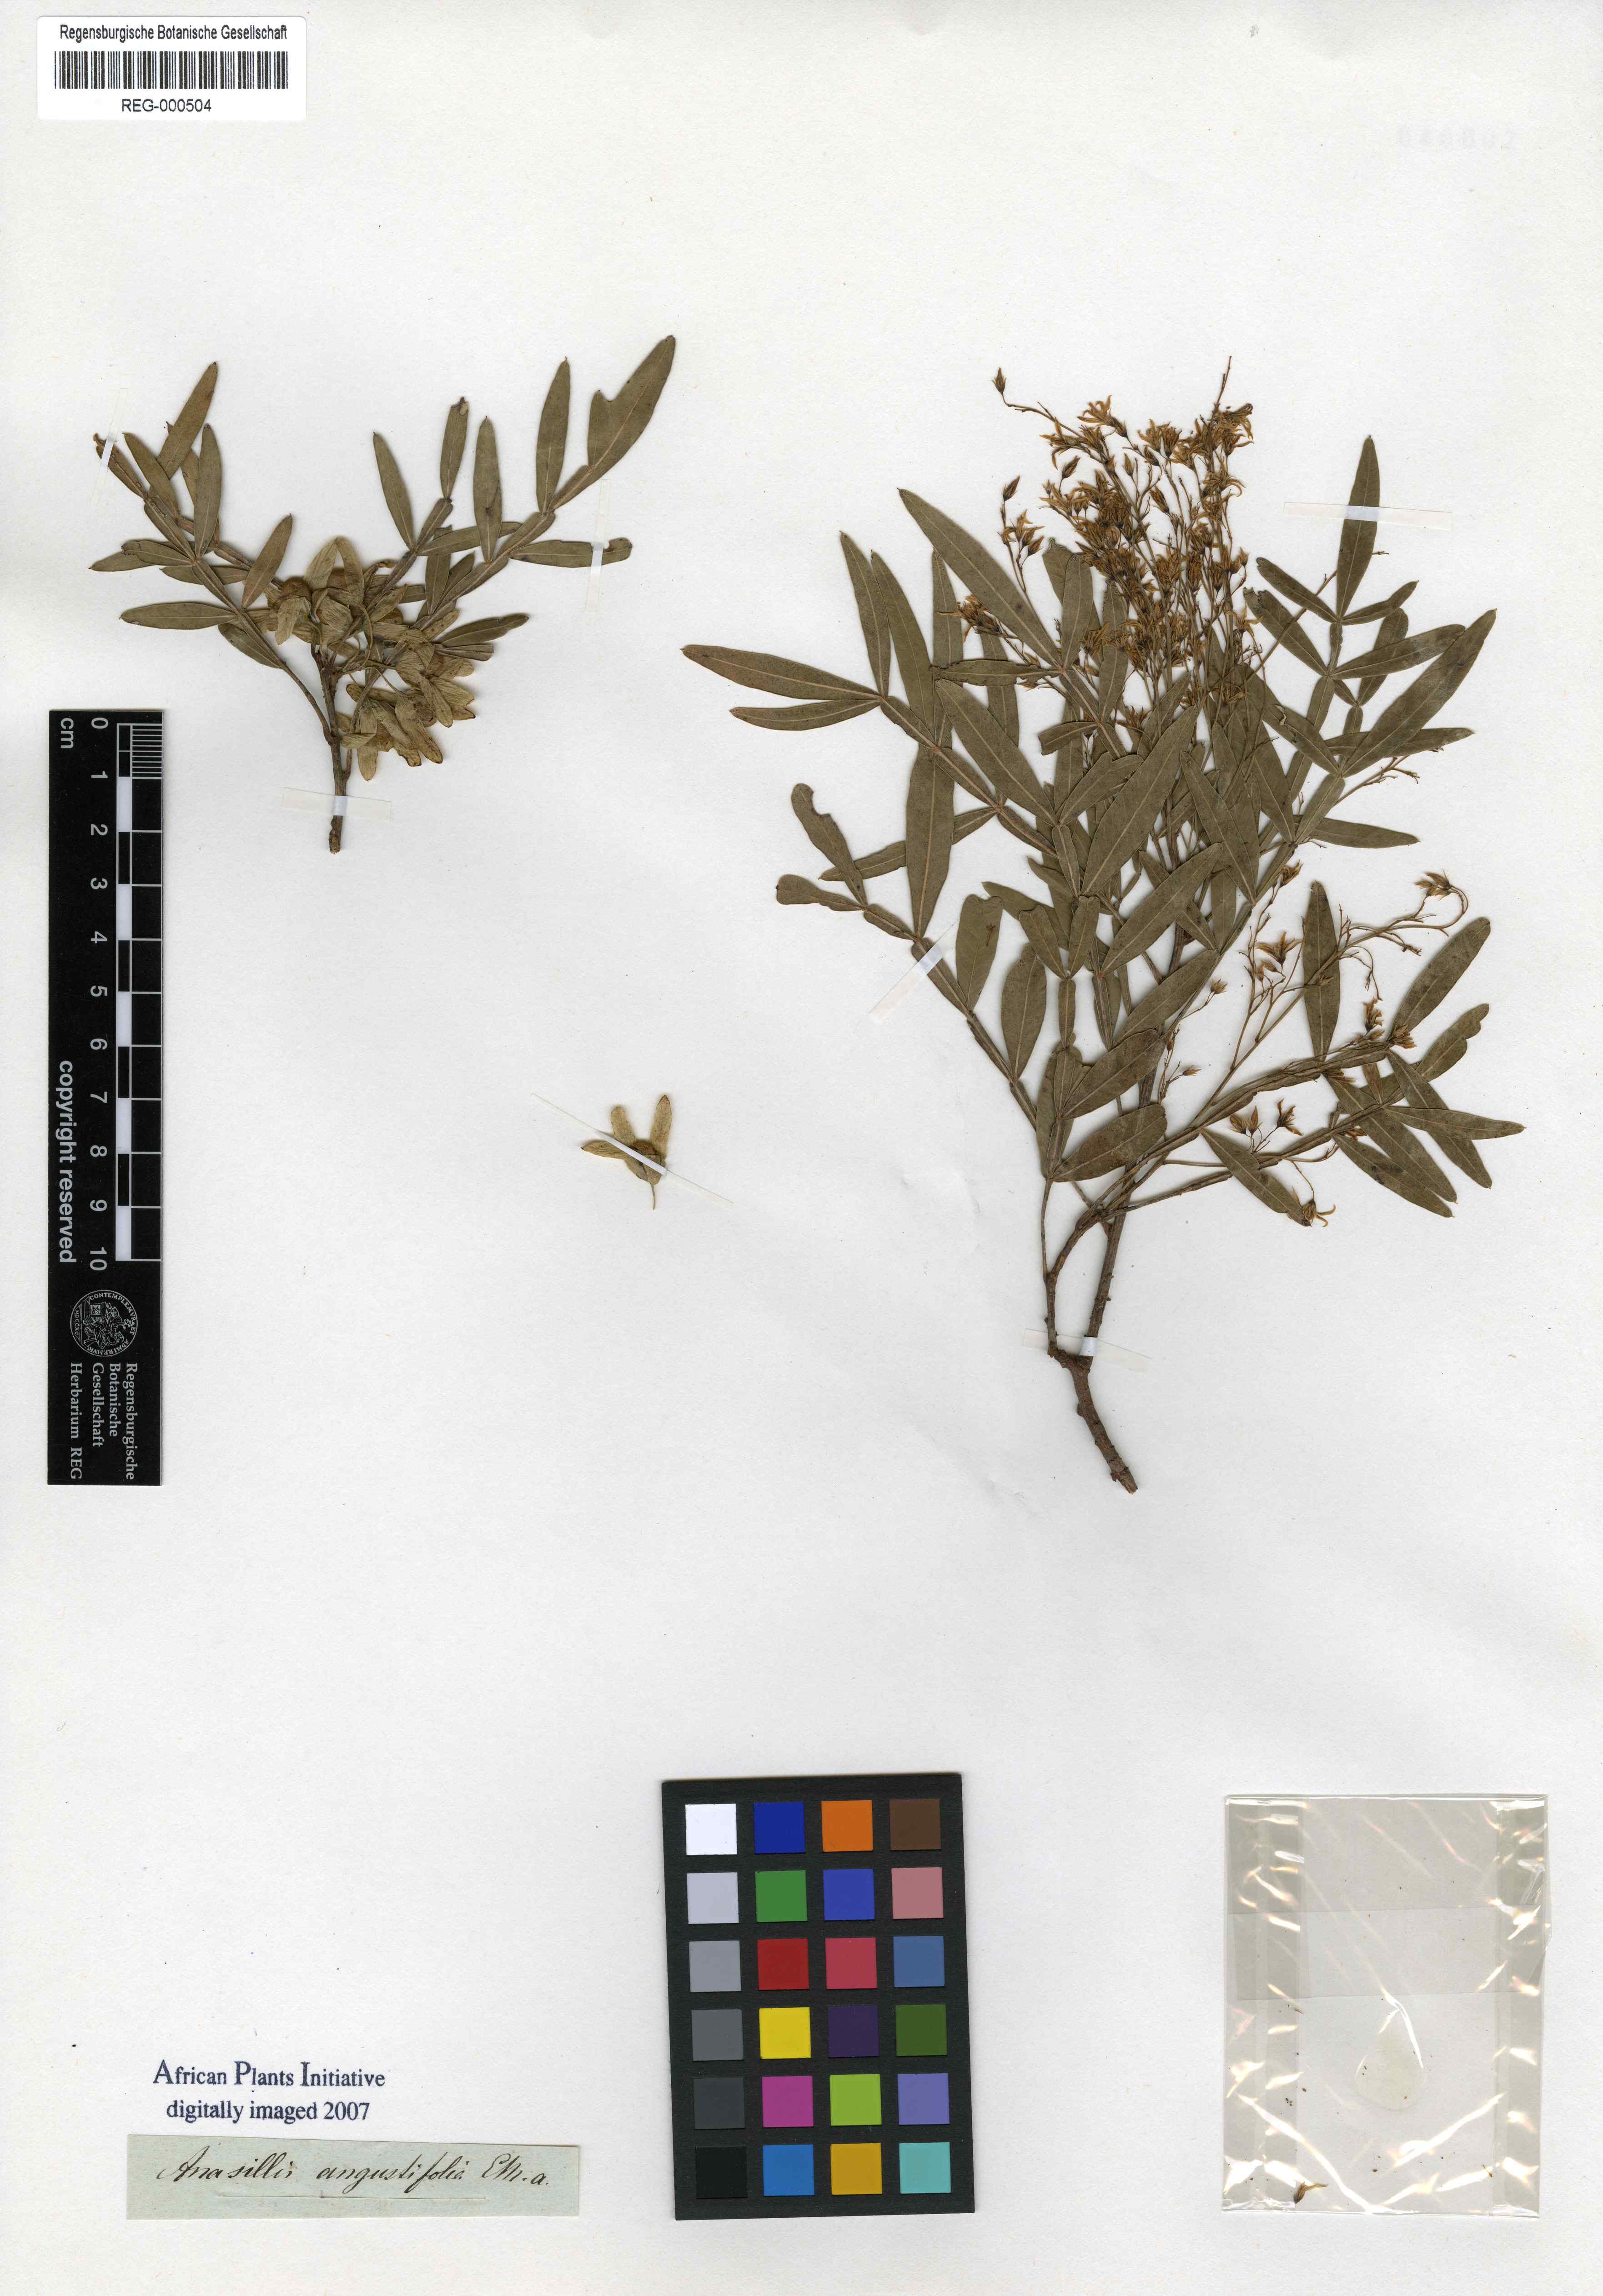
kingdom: Plantae
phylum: Tracheophyta
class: Magnoliopsida
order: Sapindales
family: Anacardiaceae
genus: Loxostylis
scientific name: Loxostylis alata
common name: Wild peppertree
